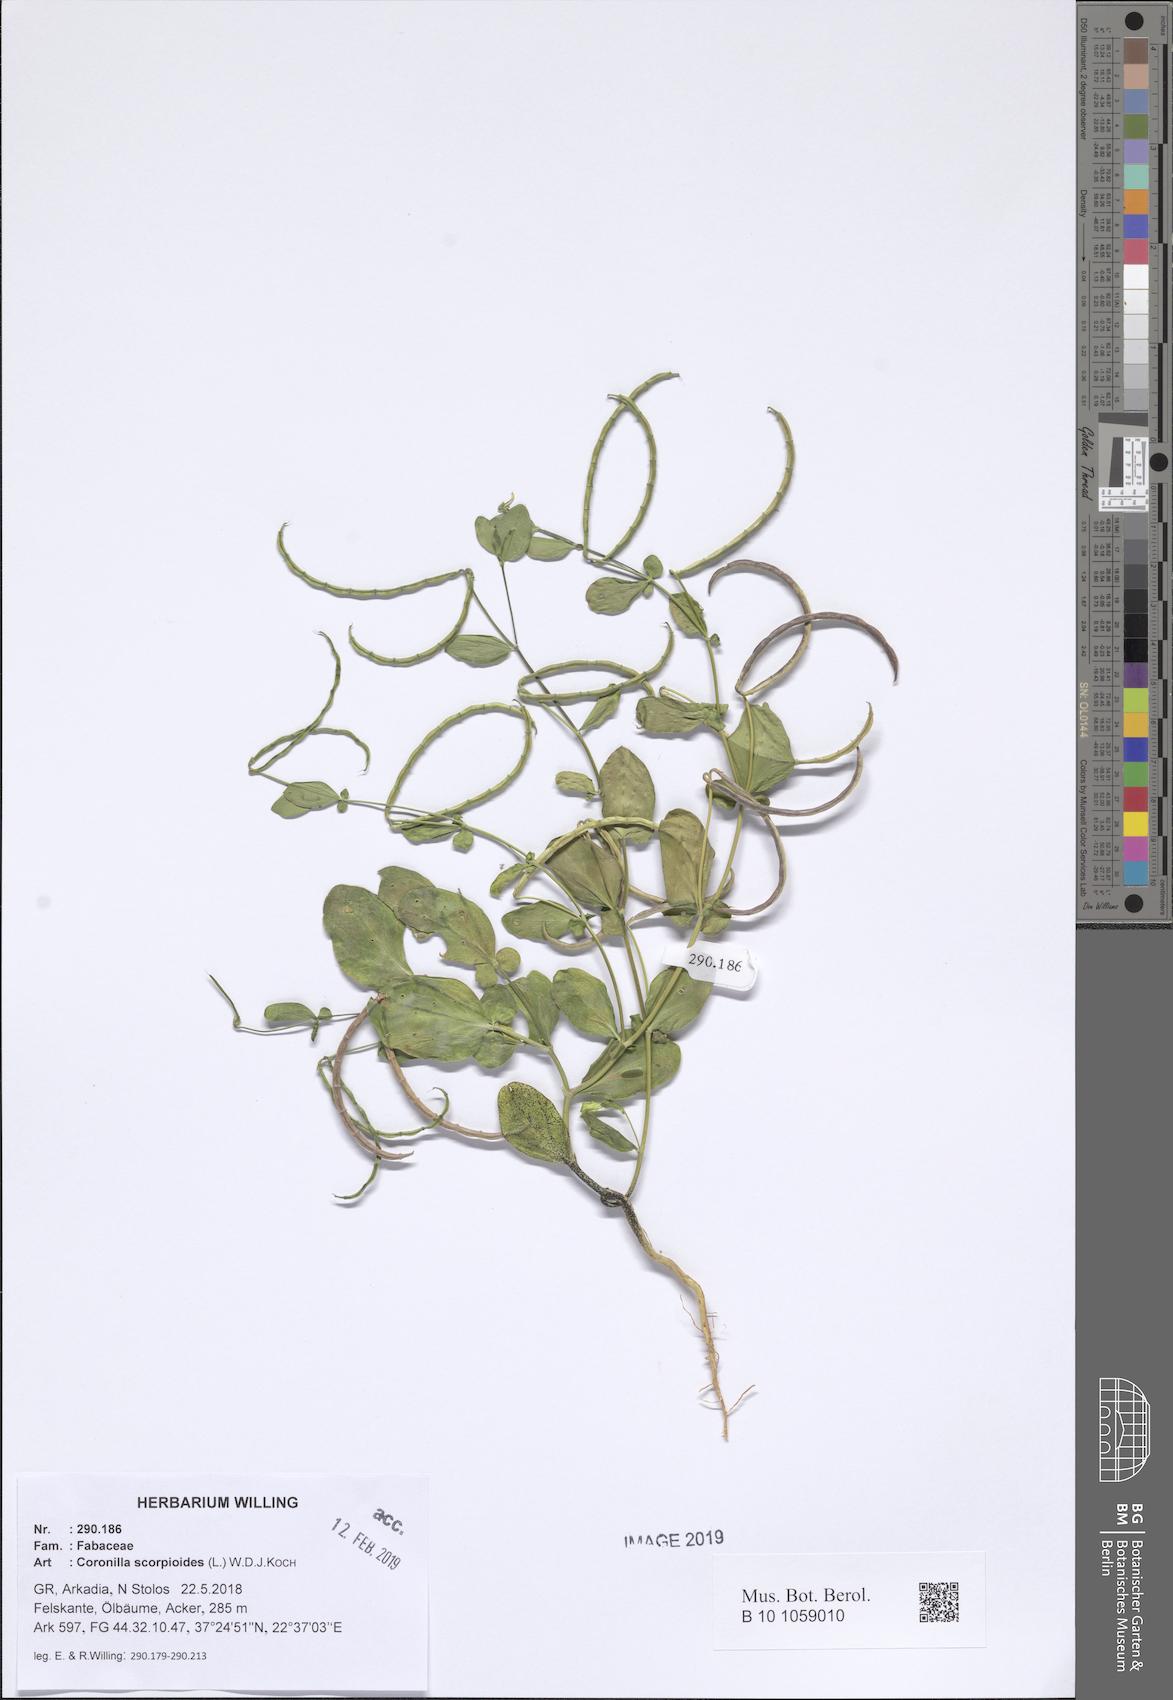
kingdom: Plantae
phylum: Tracheophyta
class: Magnoliopsida
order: Fabales
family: Fabaceae
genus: Coronilla
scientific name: Coronilla scorpioides
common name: Annual scorpion-vetch
